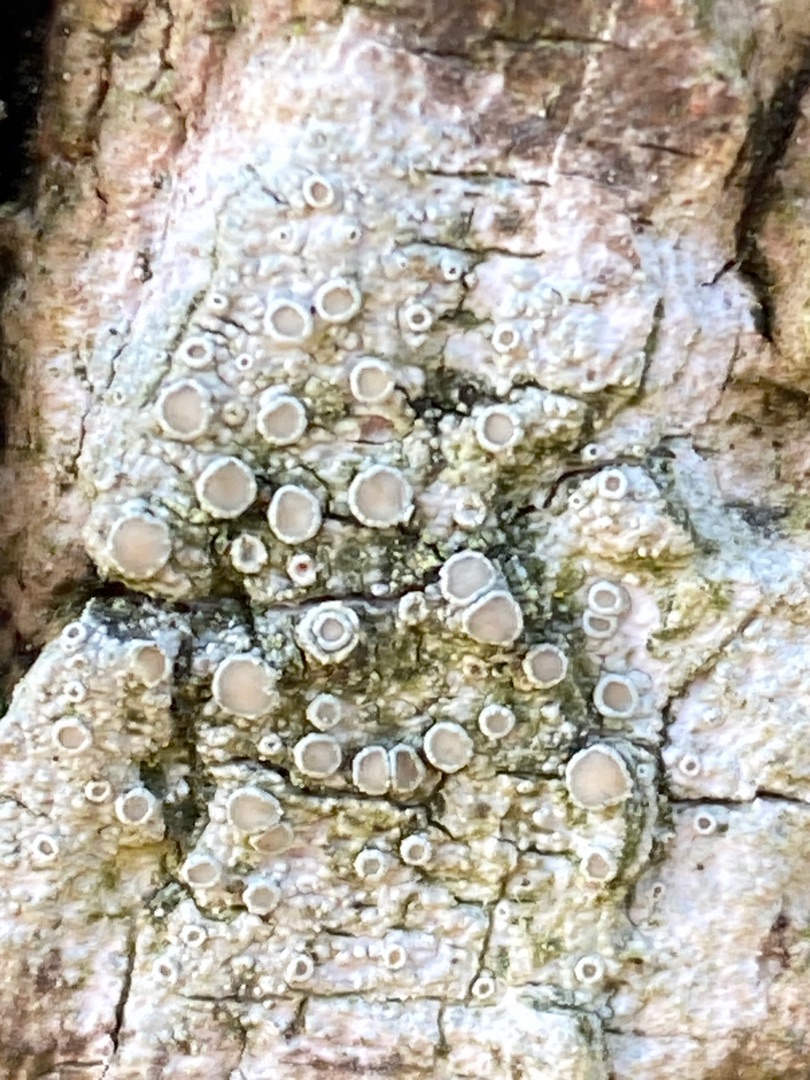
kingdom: Fungi
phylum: Ascomycota
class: Lecanoromycetes
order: Lecanorales
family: Lecanoraceae
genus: Lecanora
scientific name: Lecanora chlarotera
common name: Brun kantskivelav
